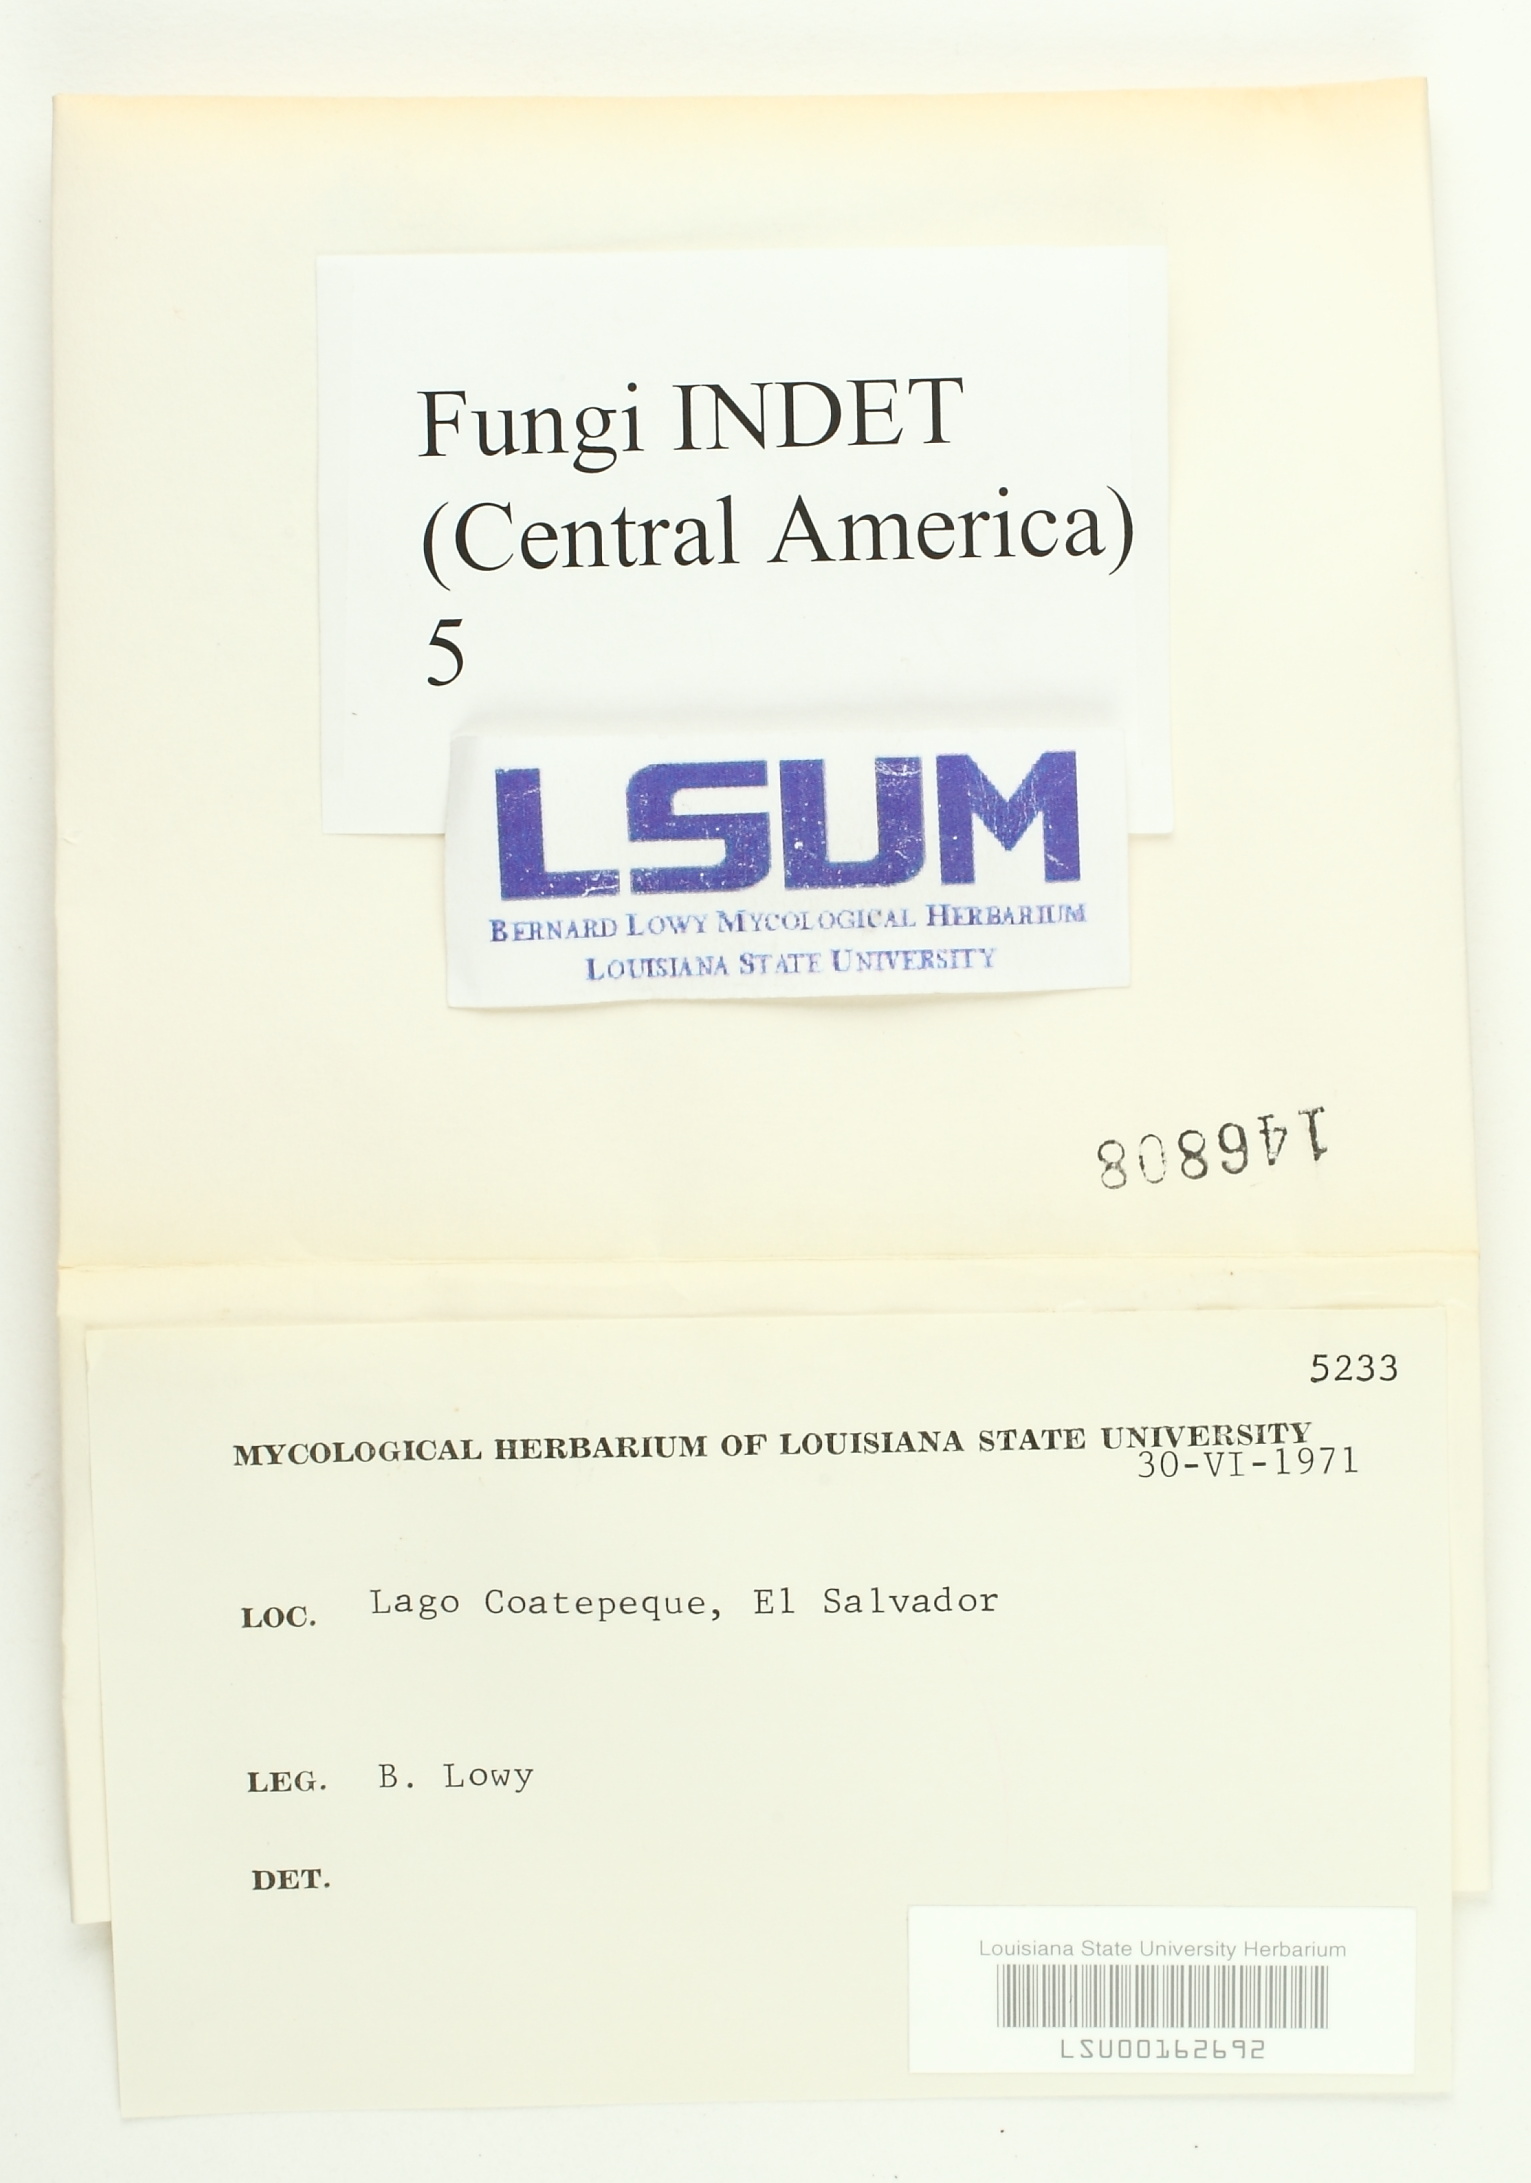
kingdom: Fungi
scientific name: Fungi
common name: Fungi
